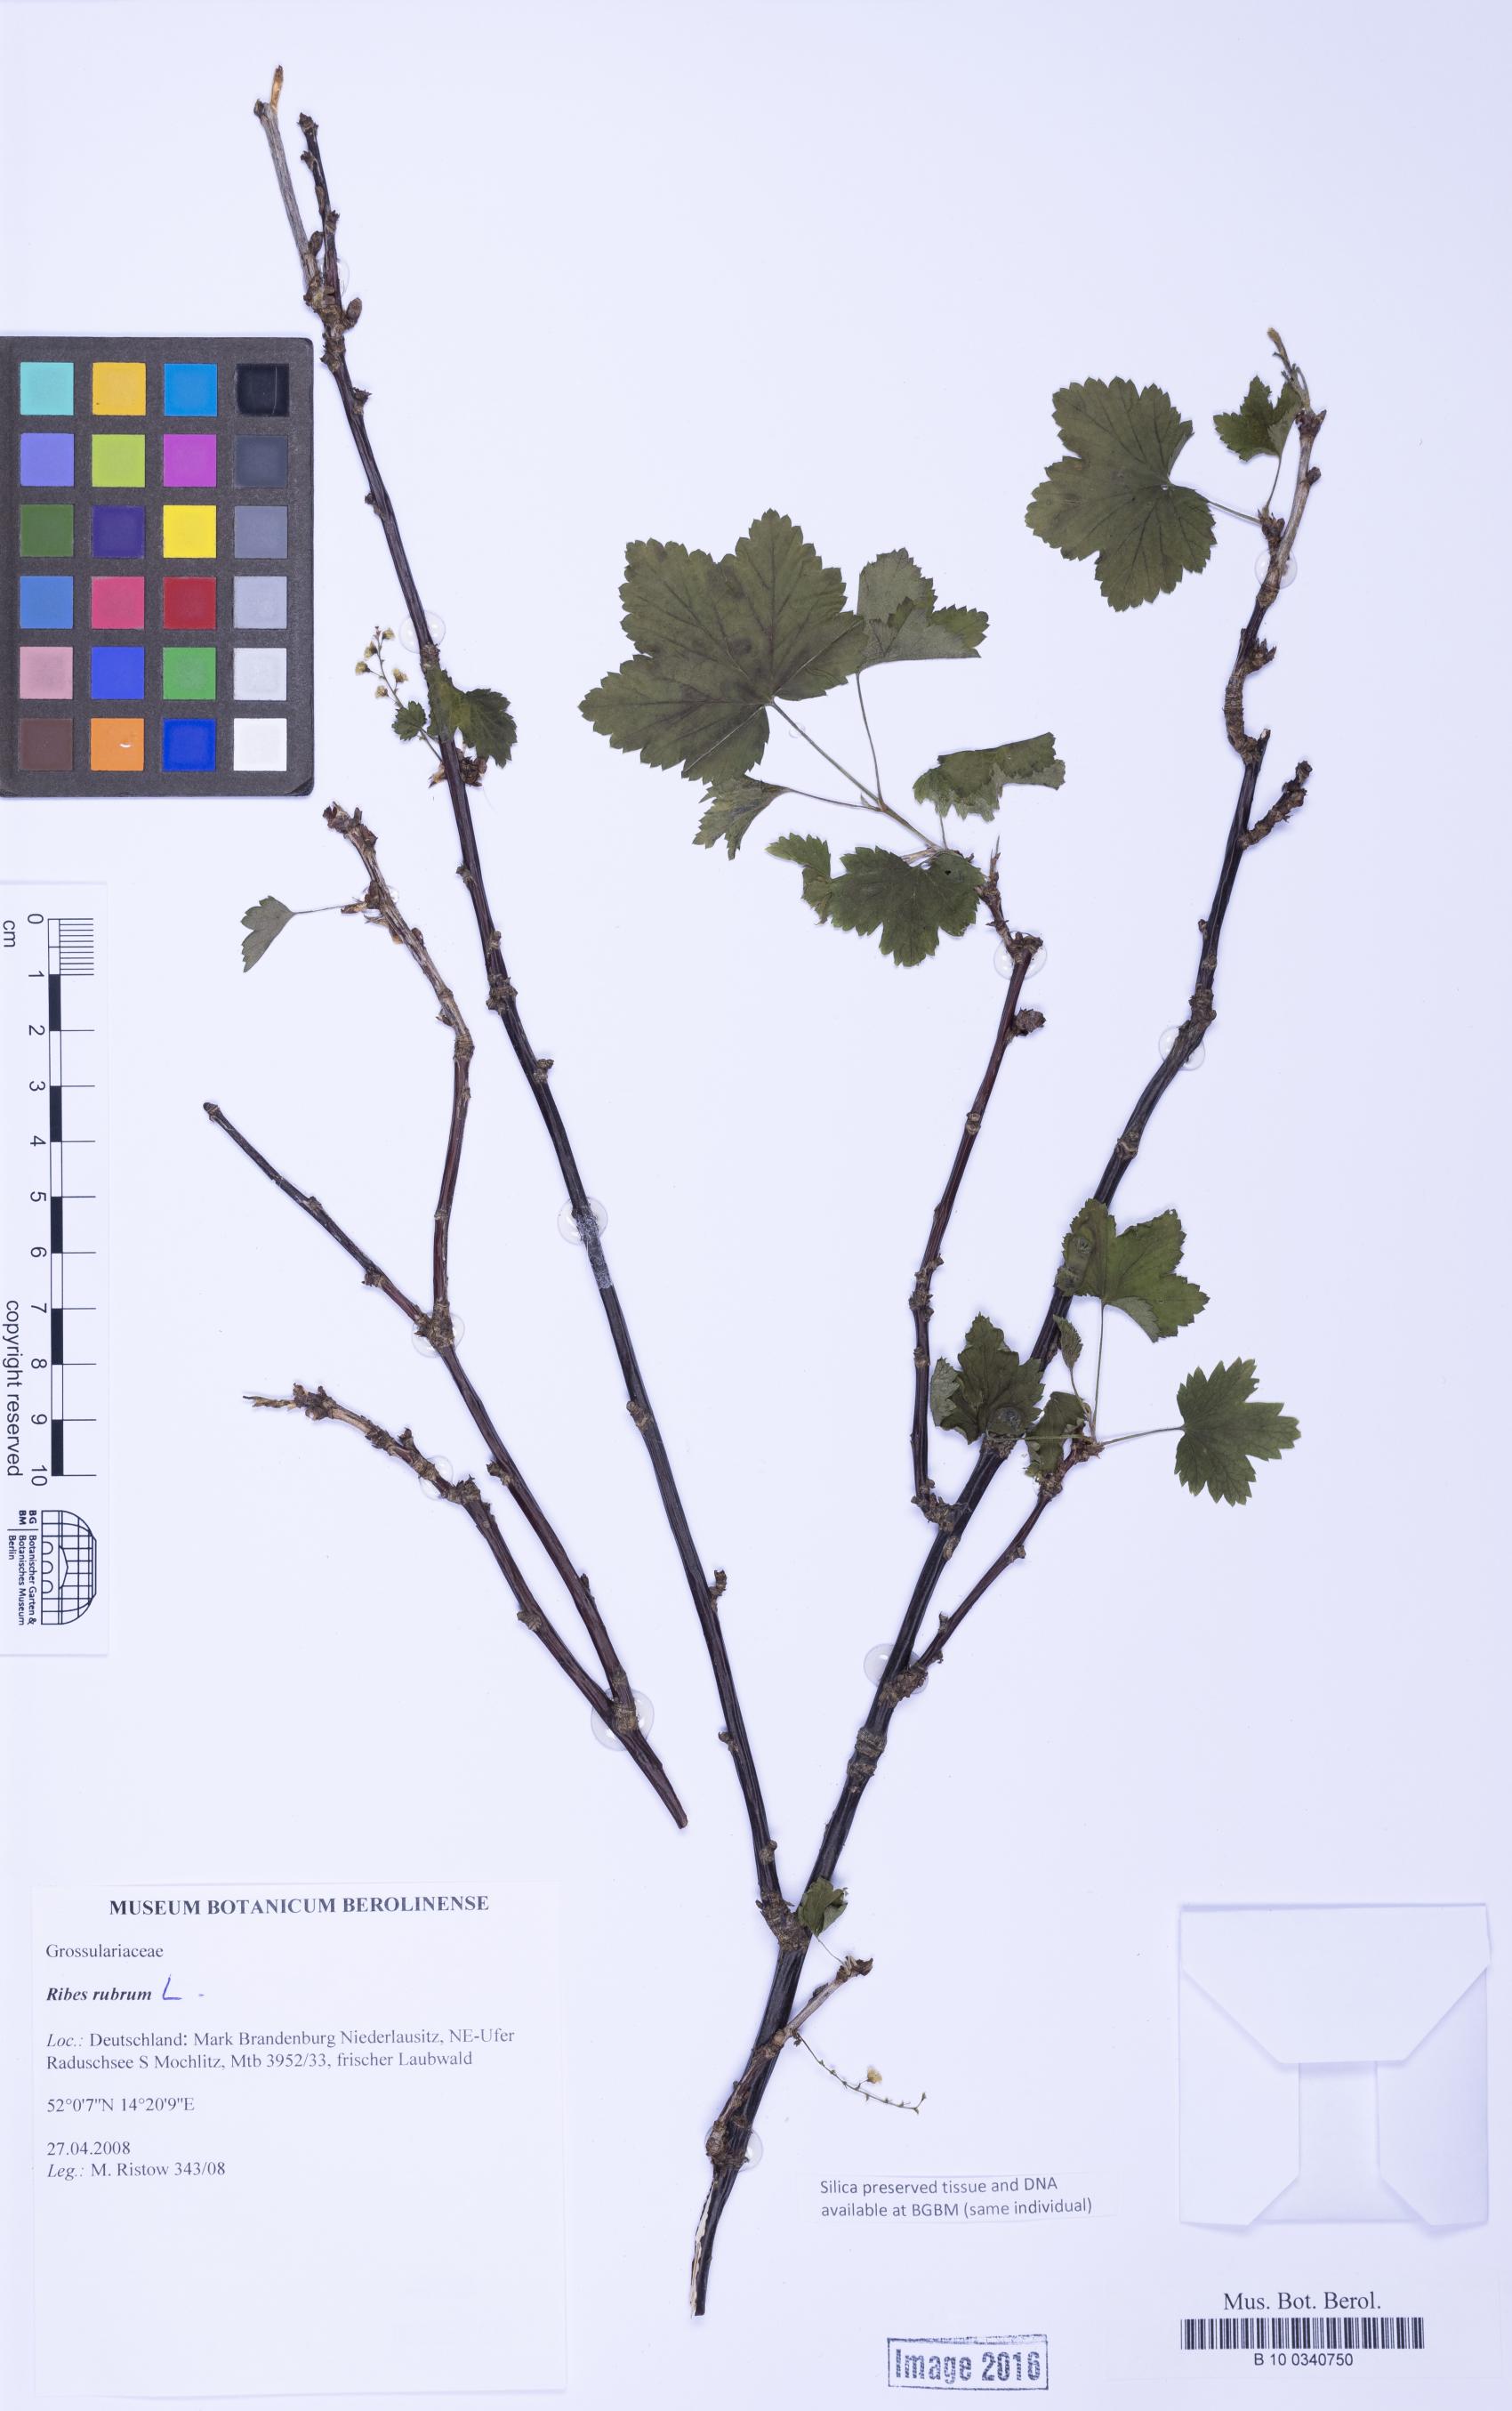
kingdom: Plantae
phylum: Tracheophyta
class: Magnoliopsida
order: Saxifragales
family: Grossulariaceae
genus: Ribes
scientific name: Ribes rubrum
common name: Red currant
